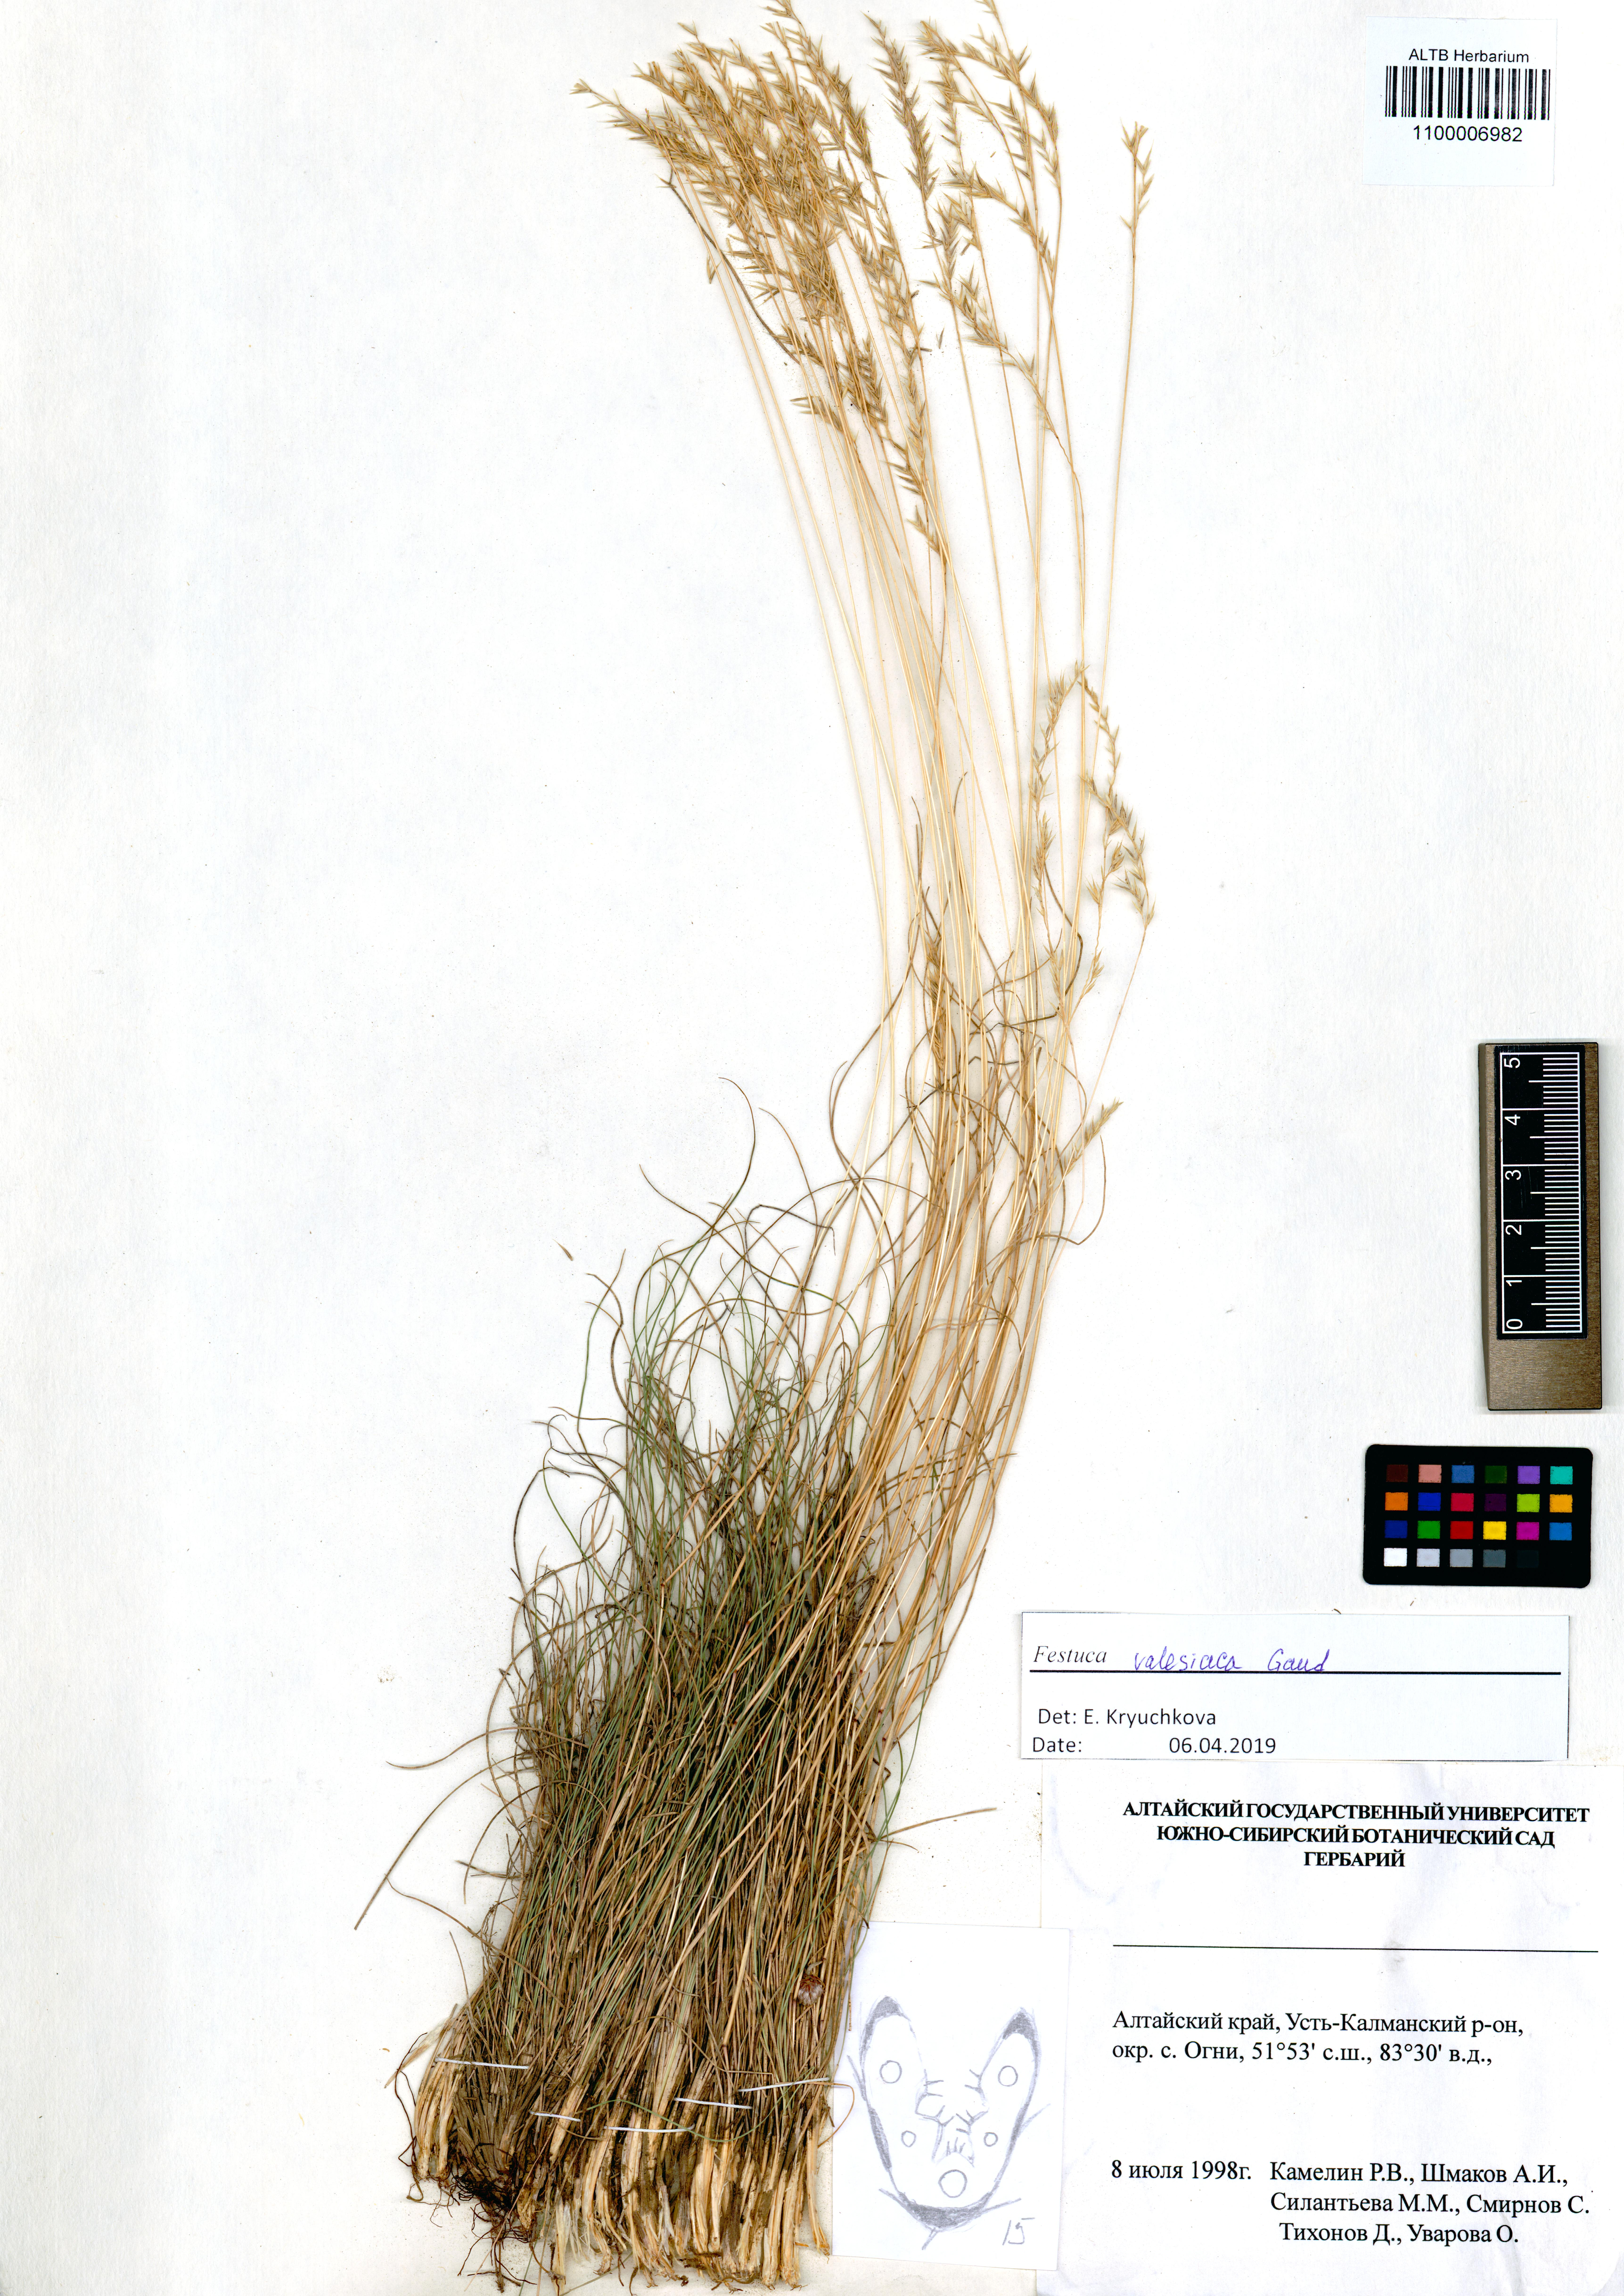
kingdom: Plantae
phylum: Tracheophyta
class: Liliopsida
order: Poales
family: Poaceae
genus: Festuca
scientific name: Festuca valesiaca
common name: Volga fescue
